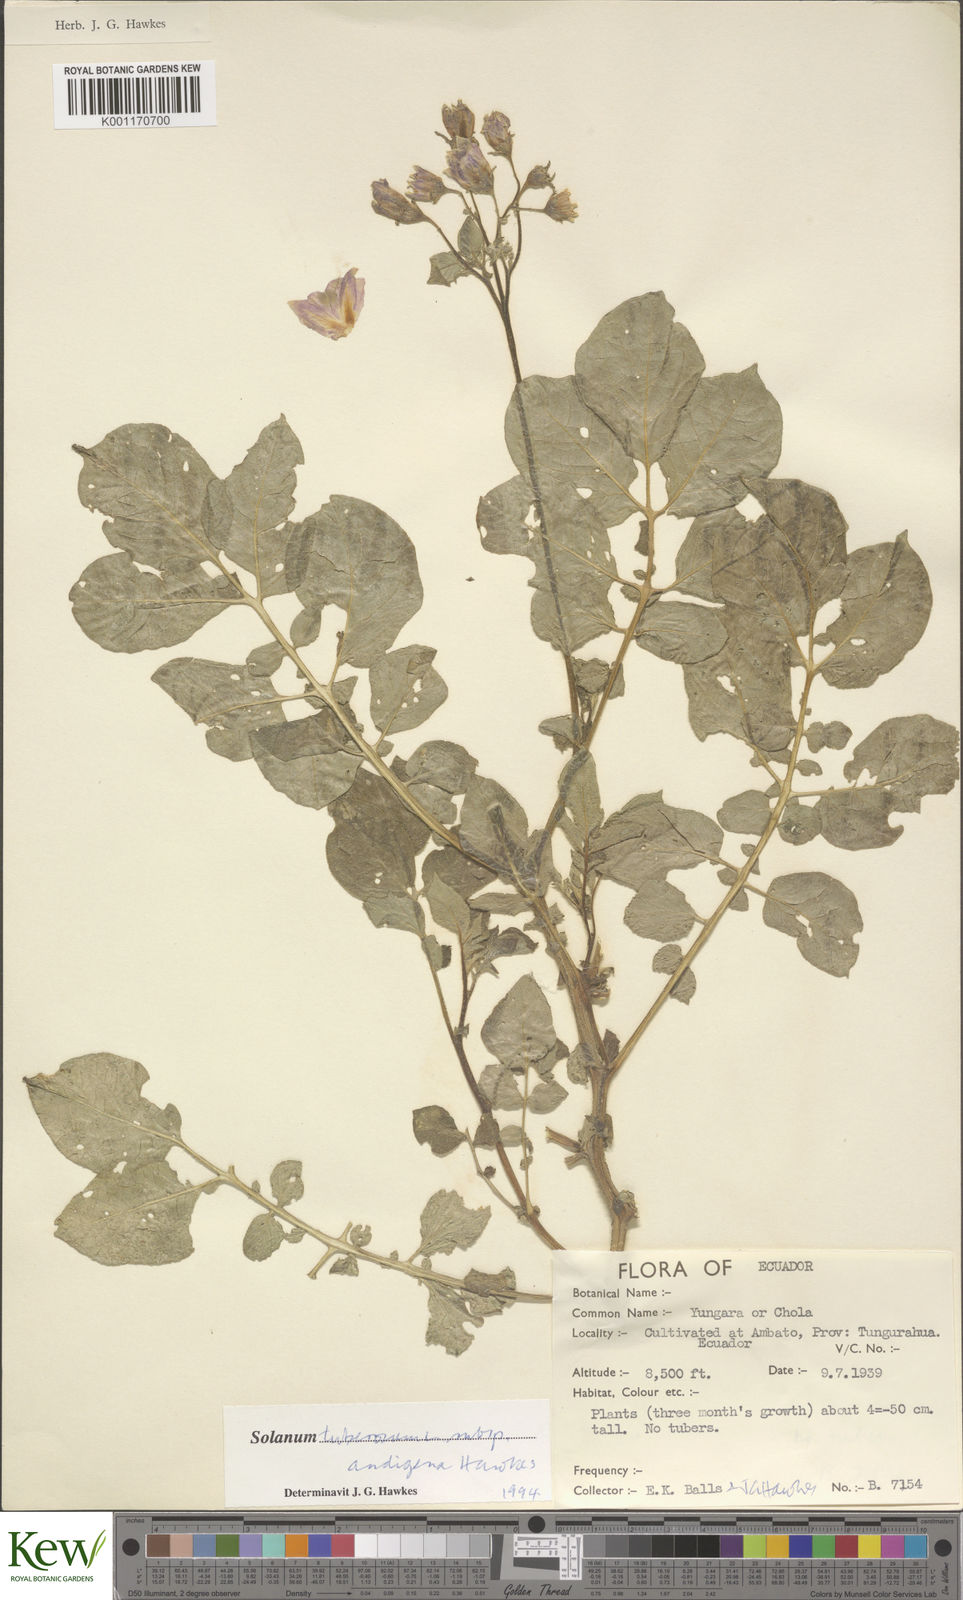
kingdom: Plantae
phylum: Tracheophyta
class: Magnoliopsida
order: Solanales
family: Solanaceae
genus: Solanum
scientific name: Solanum tuberosum
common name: Potato
